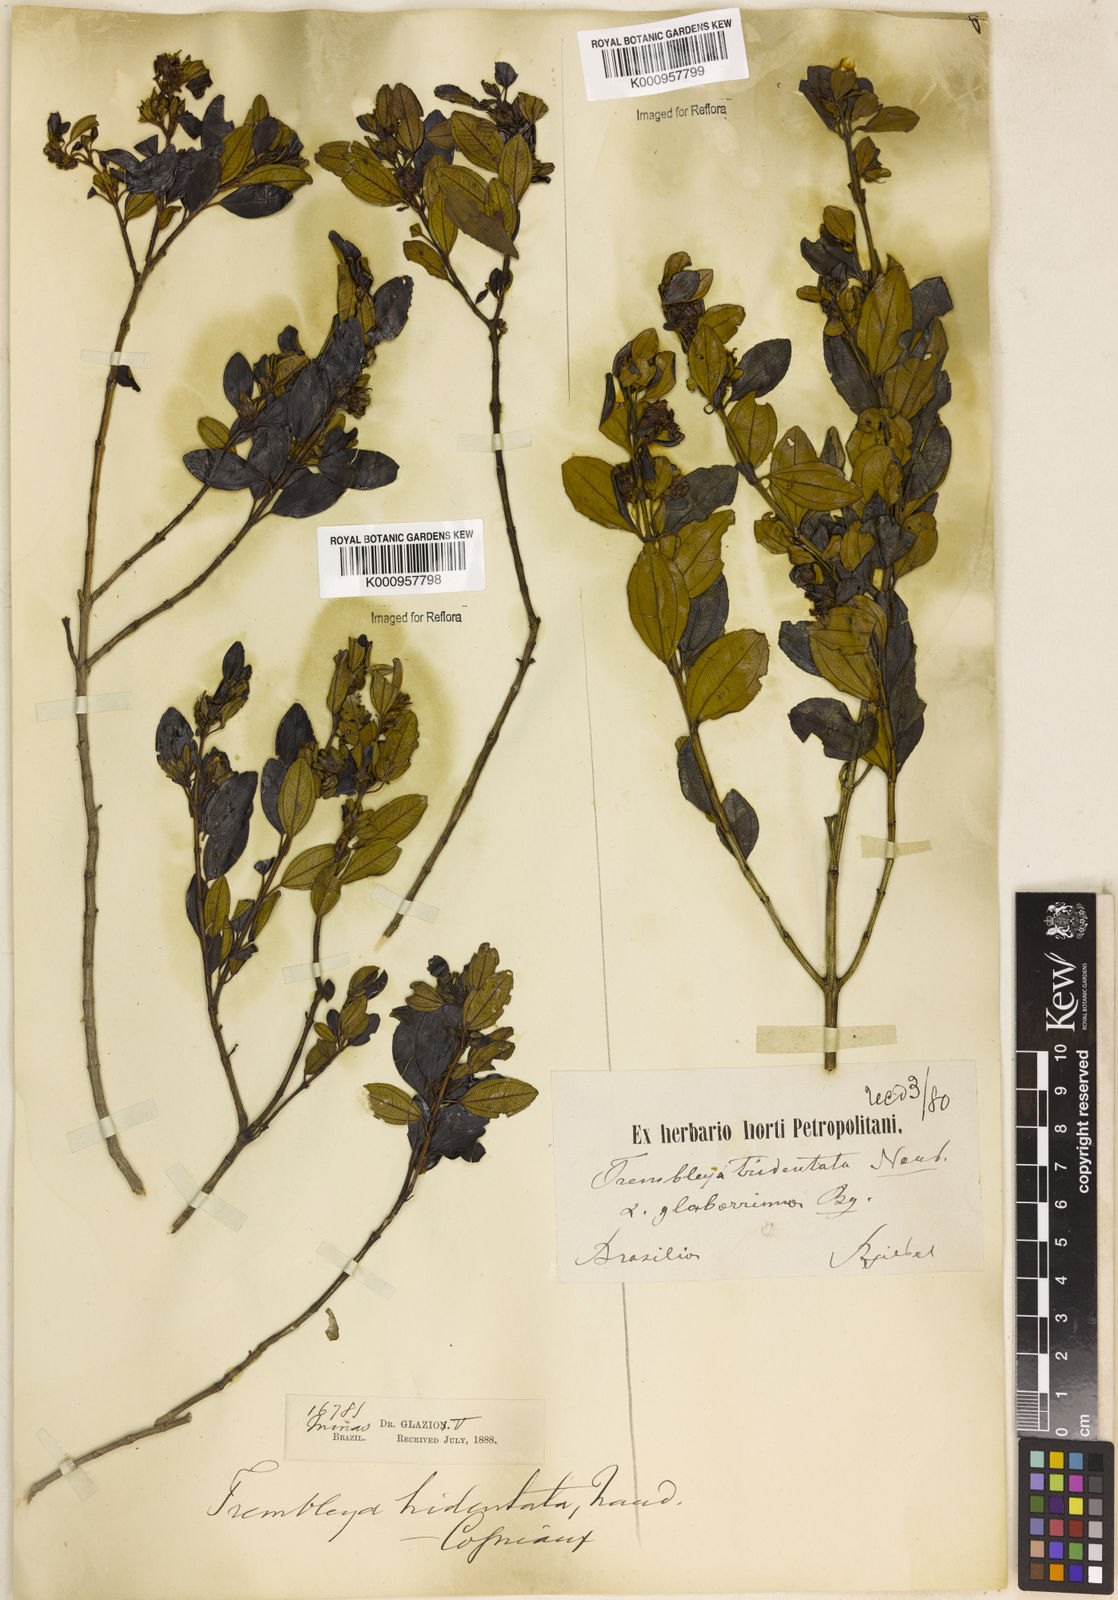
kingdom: Plantae
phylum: Tracheophyta
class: Magnoliopsida
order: Myrtales
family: Melastomataceae
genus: Microlicia
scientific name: Microlicia tridentata
